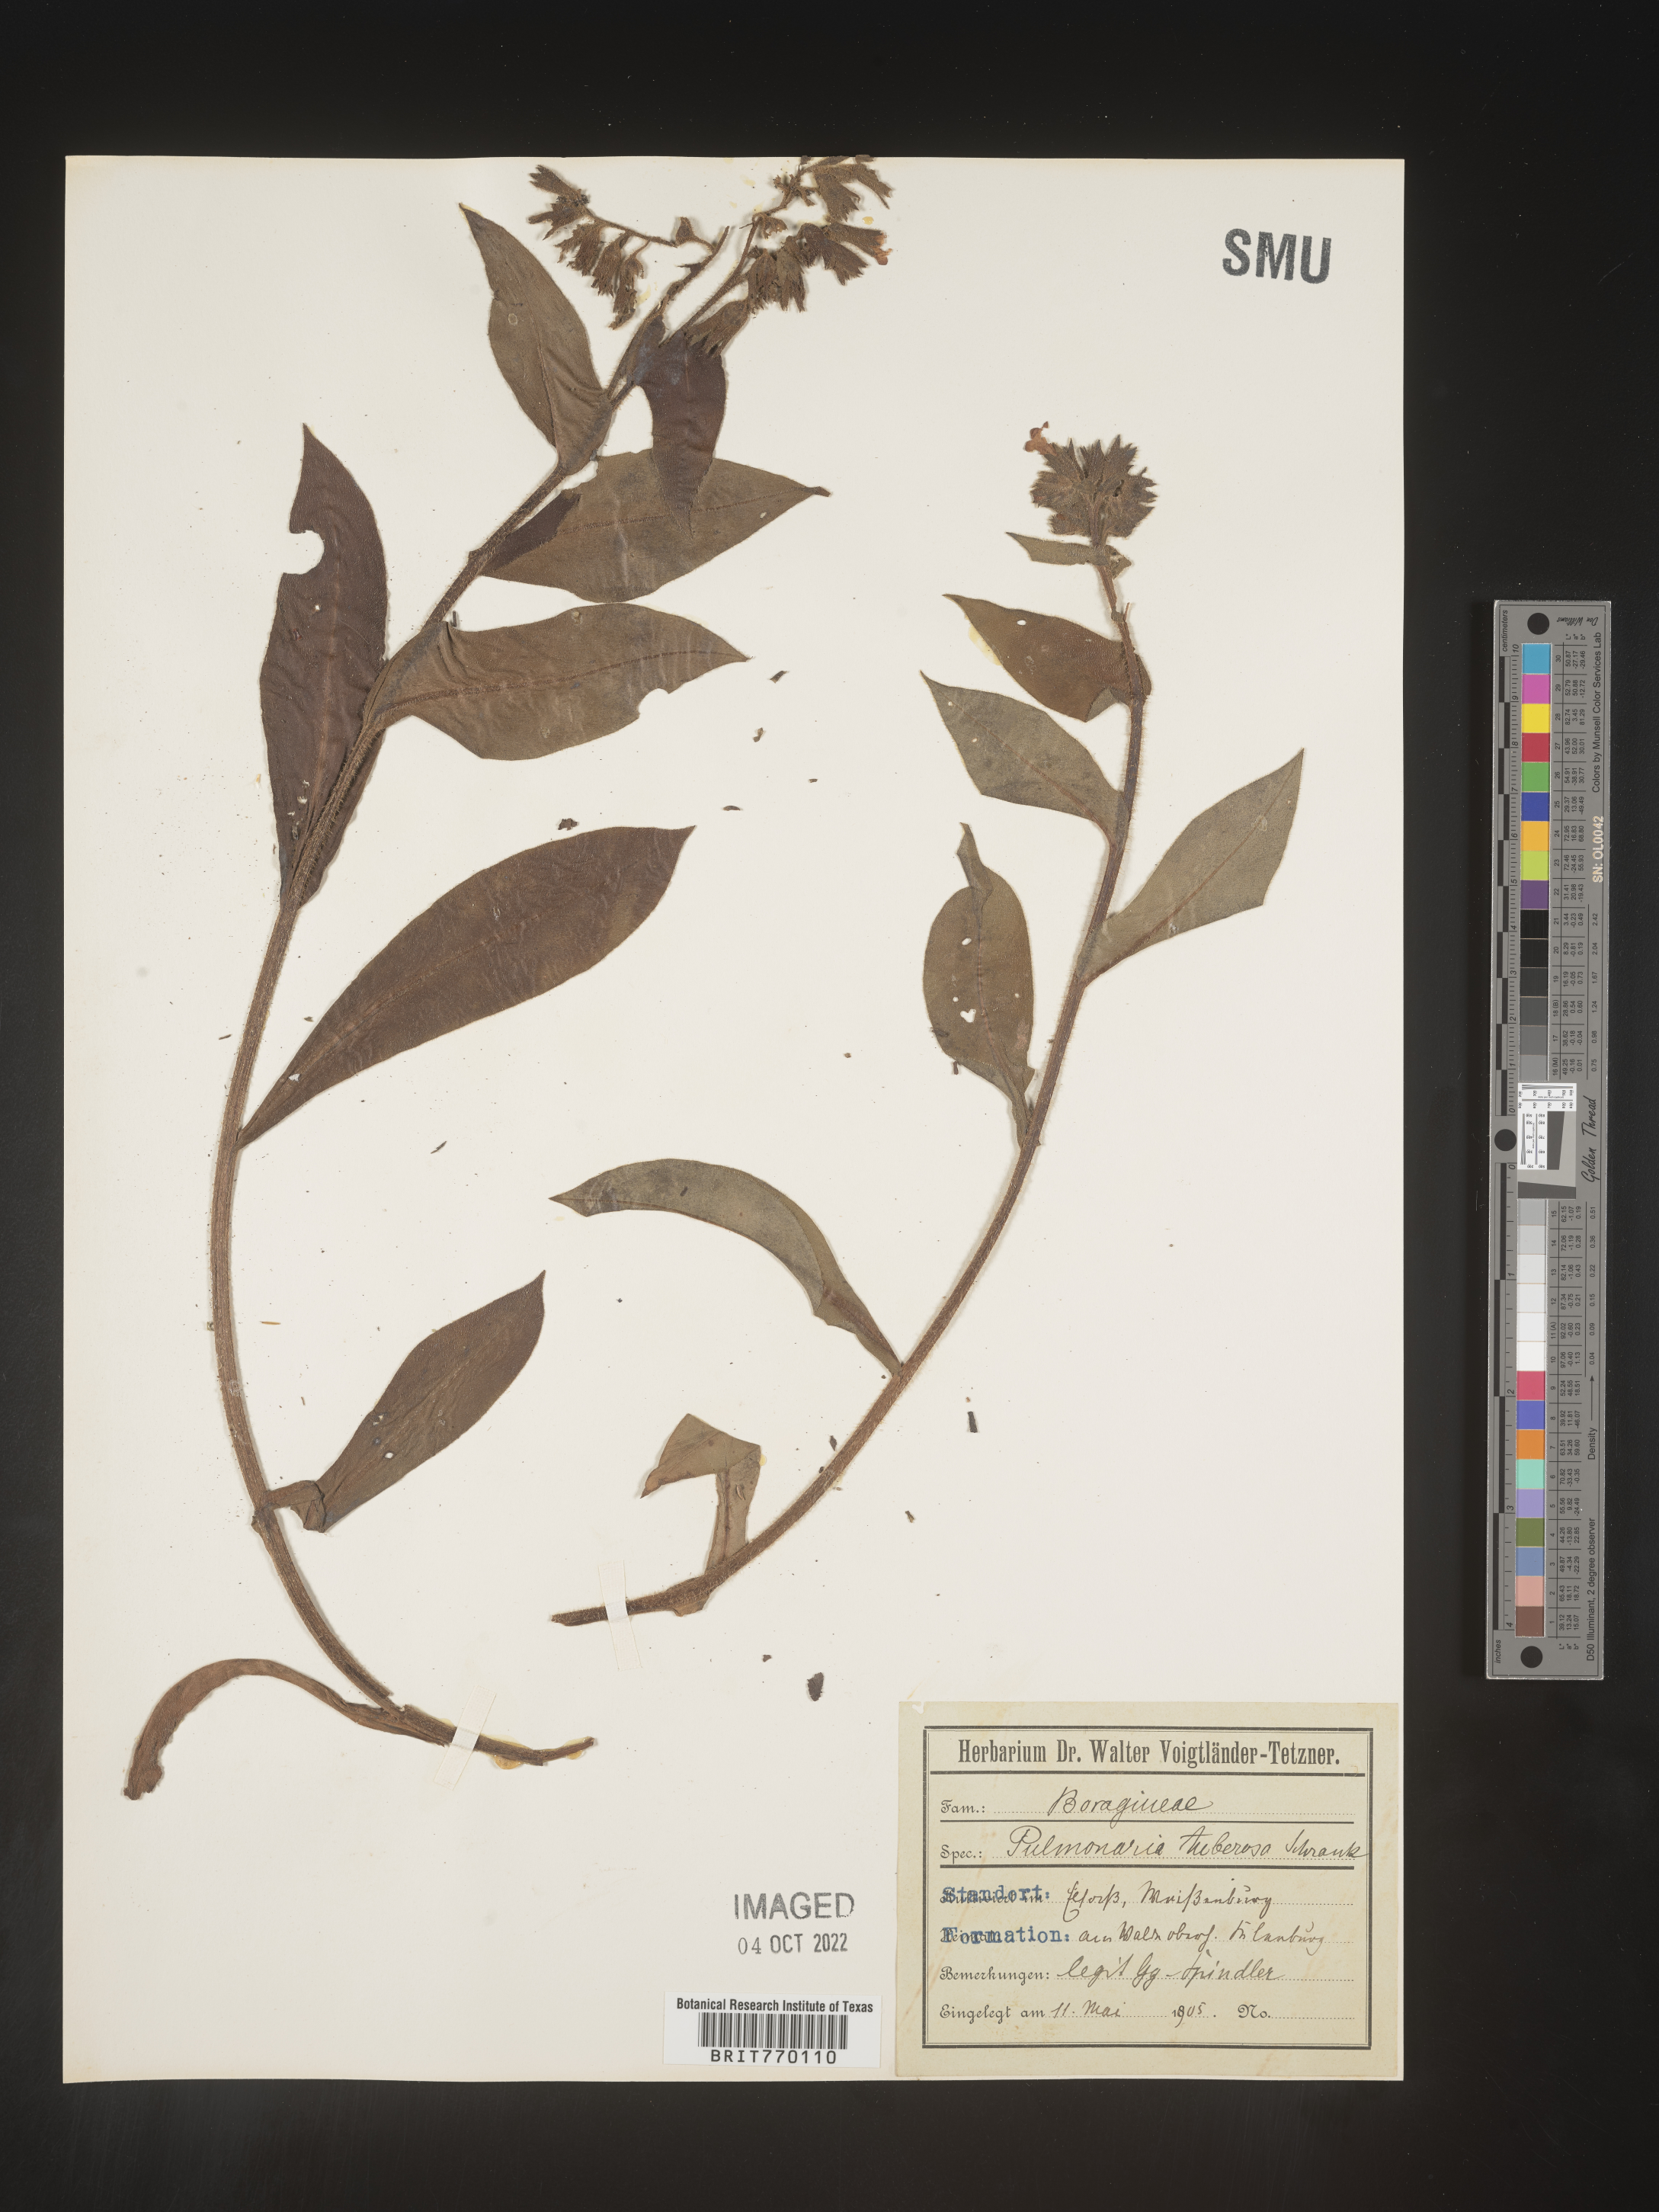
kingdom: Plantae
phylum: Tracheophyta
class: Magnoliopsida
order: Boraginales
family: Boraginaceae
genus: Pulmonaria
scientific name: Pulmonaria
